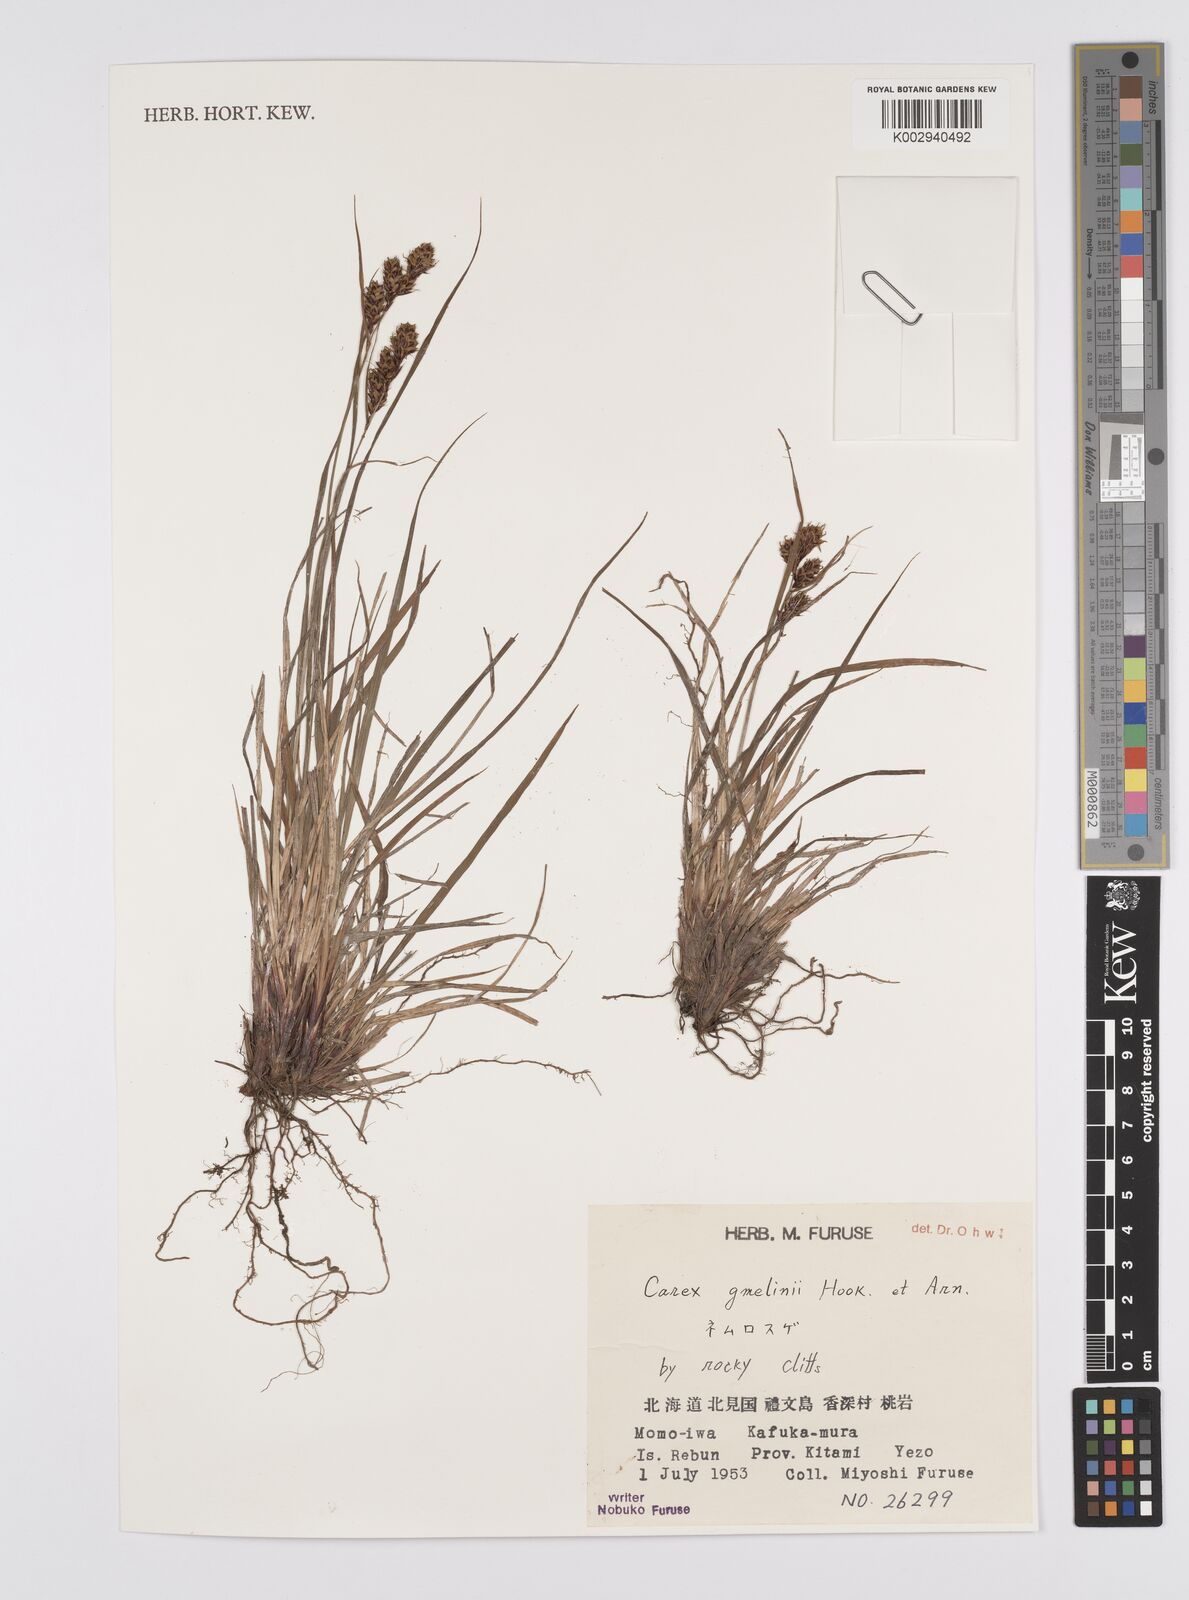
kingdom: Plantae
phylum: Tracheophyta
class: Liliopsida
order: Poales
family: Cyperaceae
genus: Carex
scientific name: Carex gmelinii
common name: Gmelin's sedge
